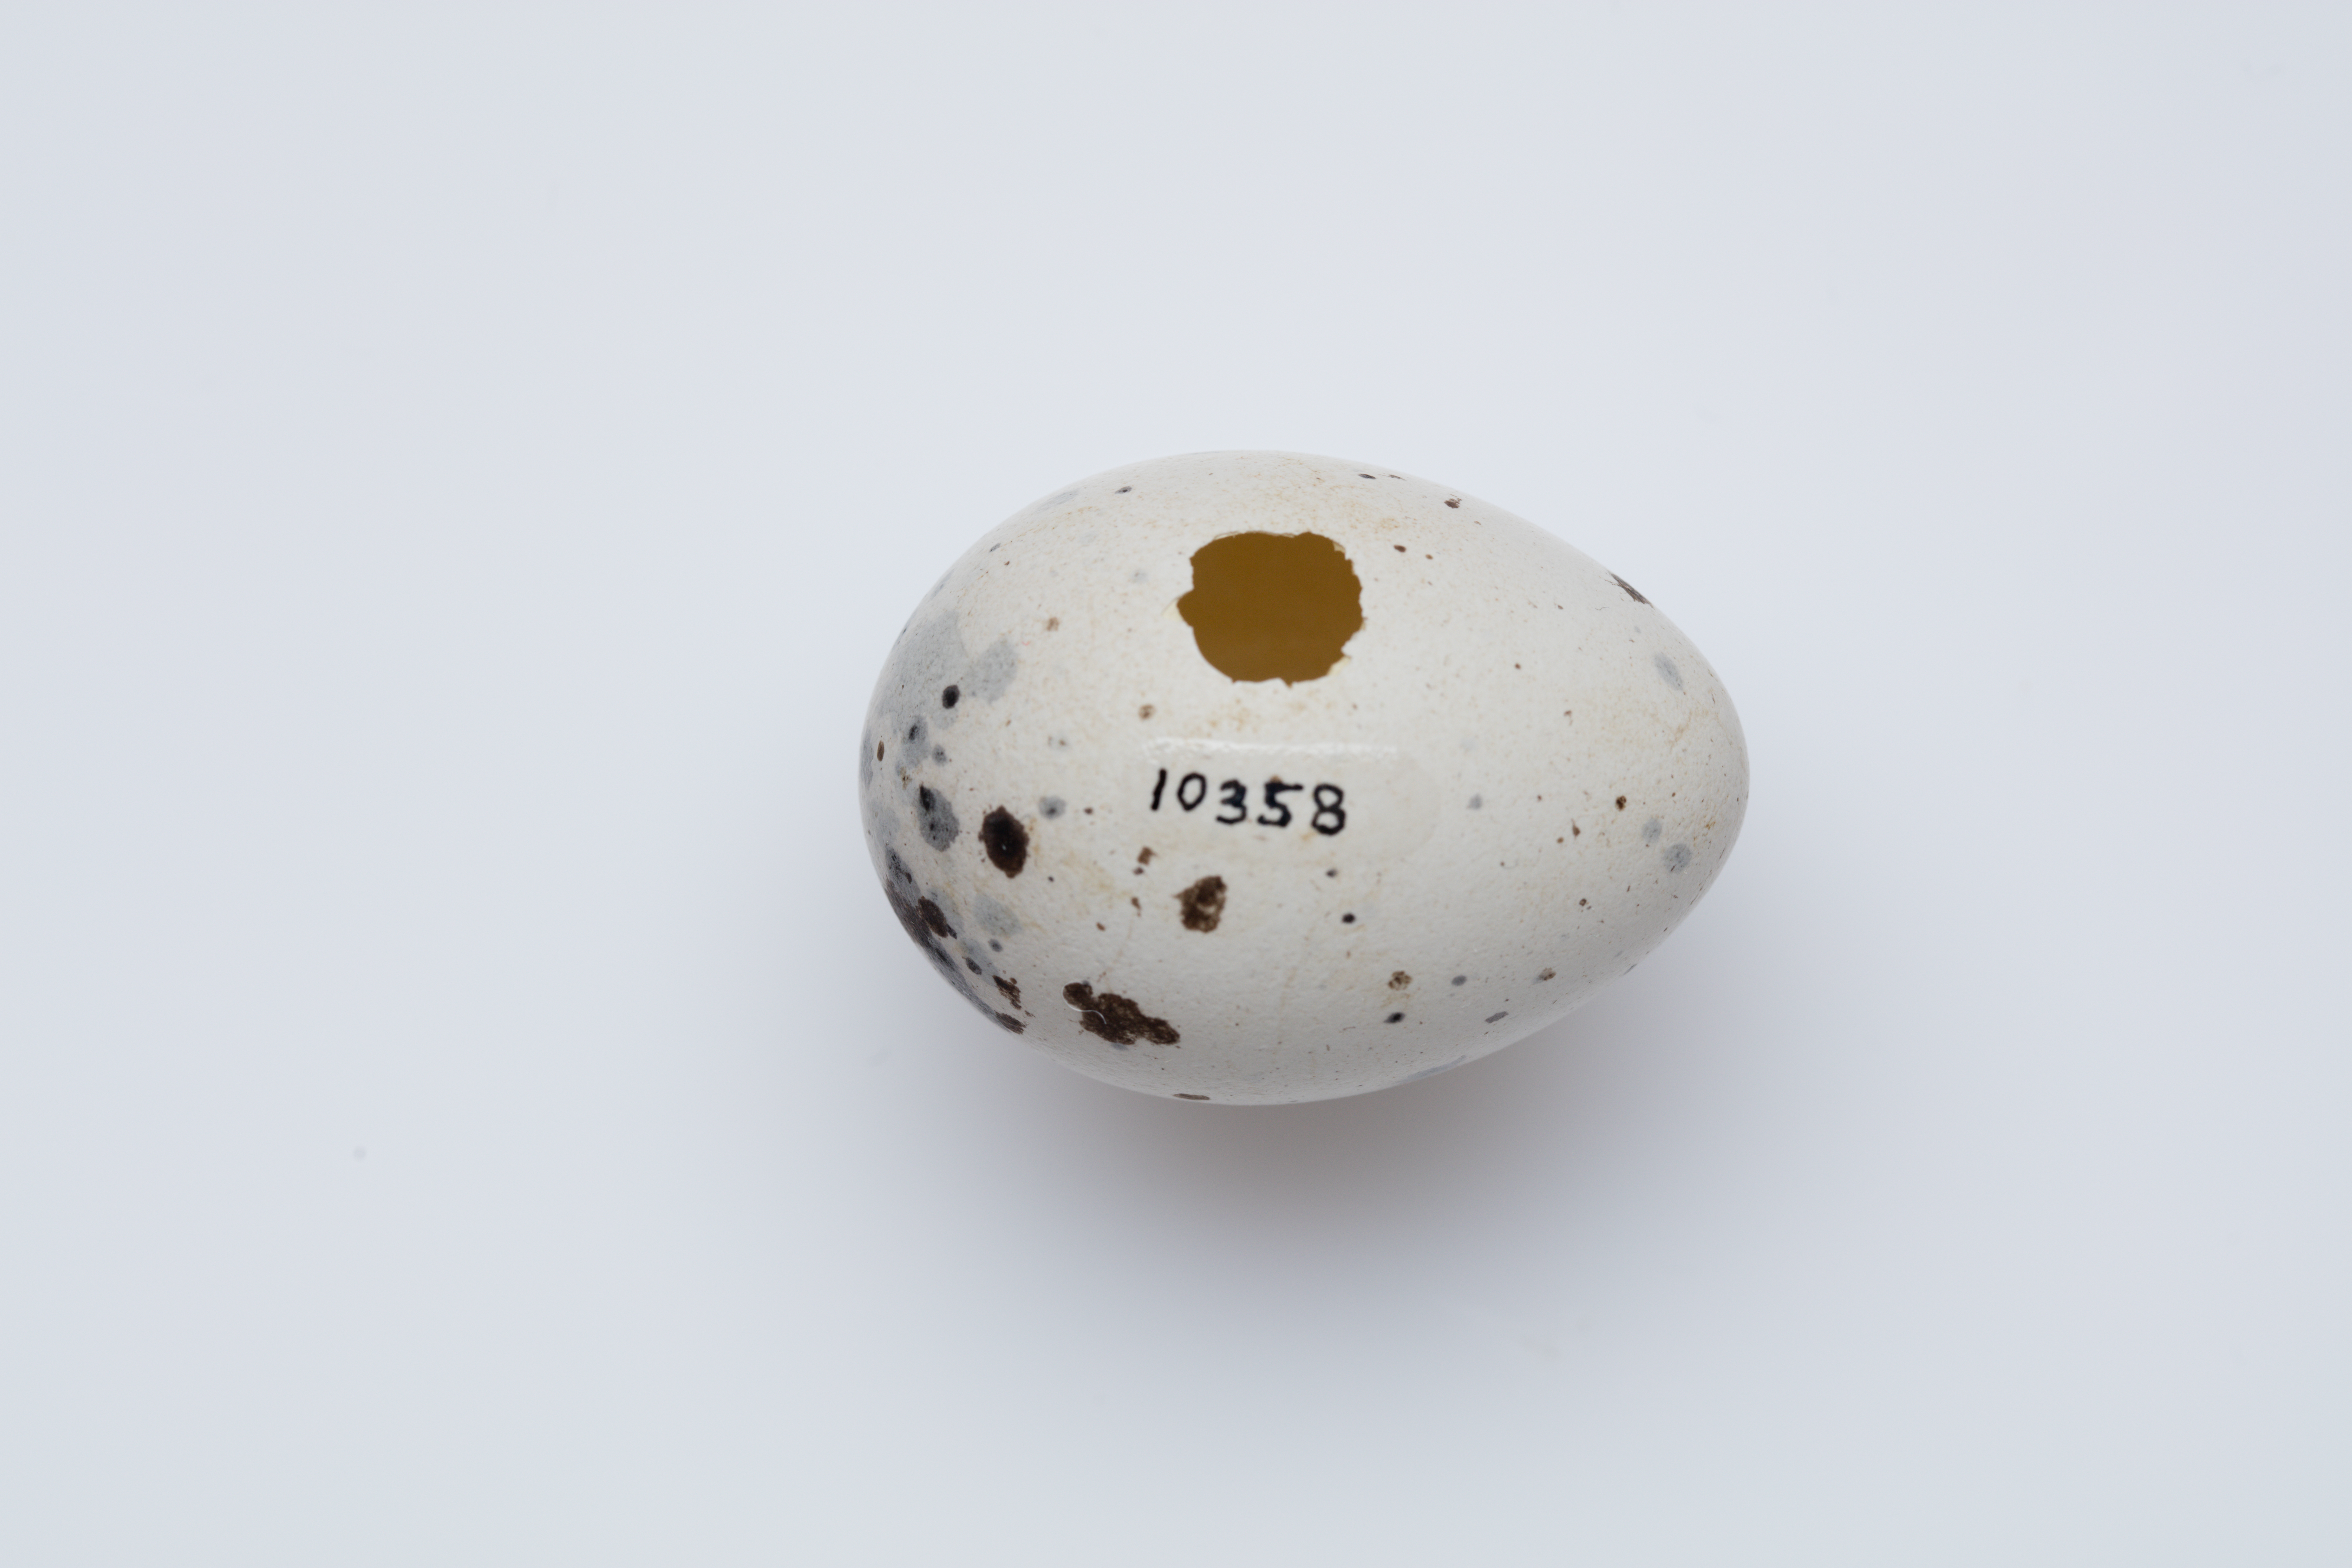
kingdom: Animalia
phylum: Chordata
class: Aves
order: Passeriformes
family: Callaeatidae
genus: Callaeas
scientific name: Callaeas cinereus
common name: South island kokako
